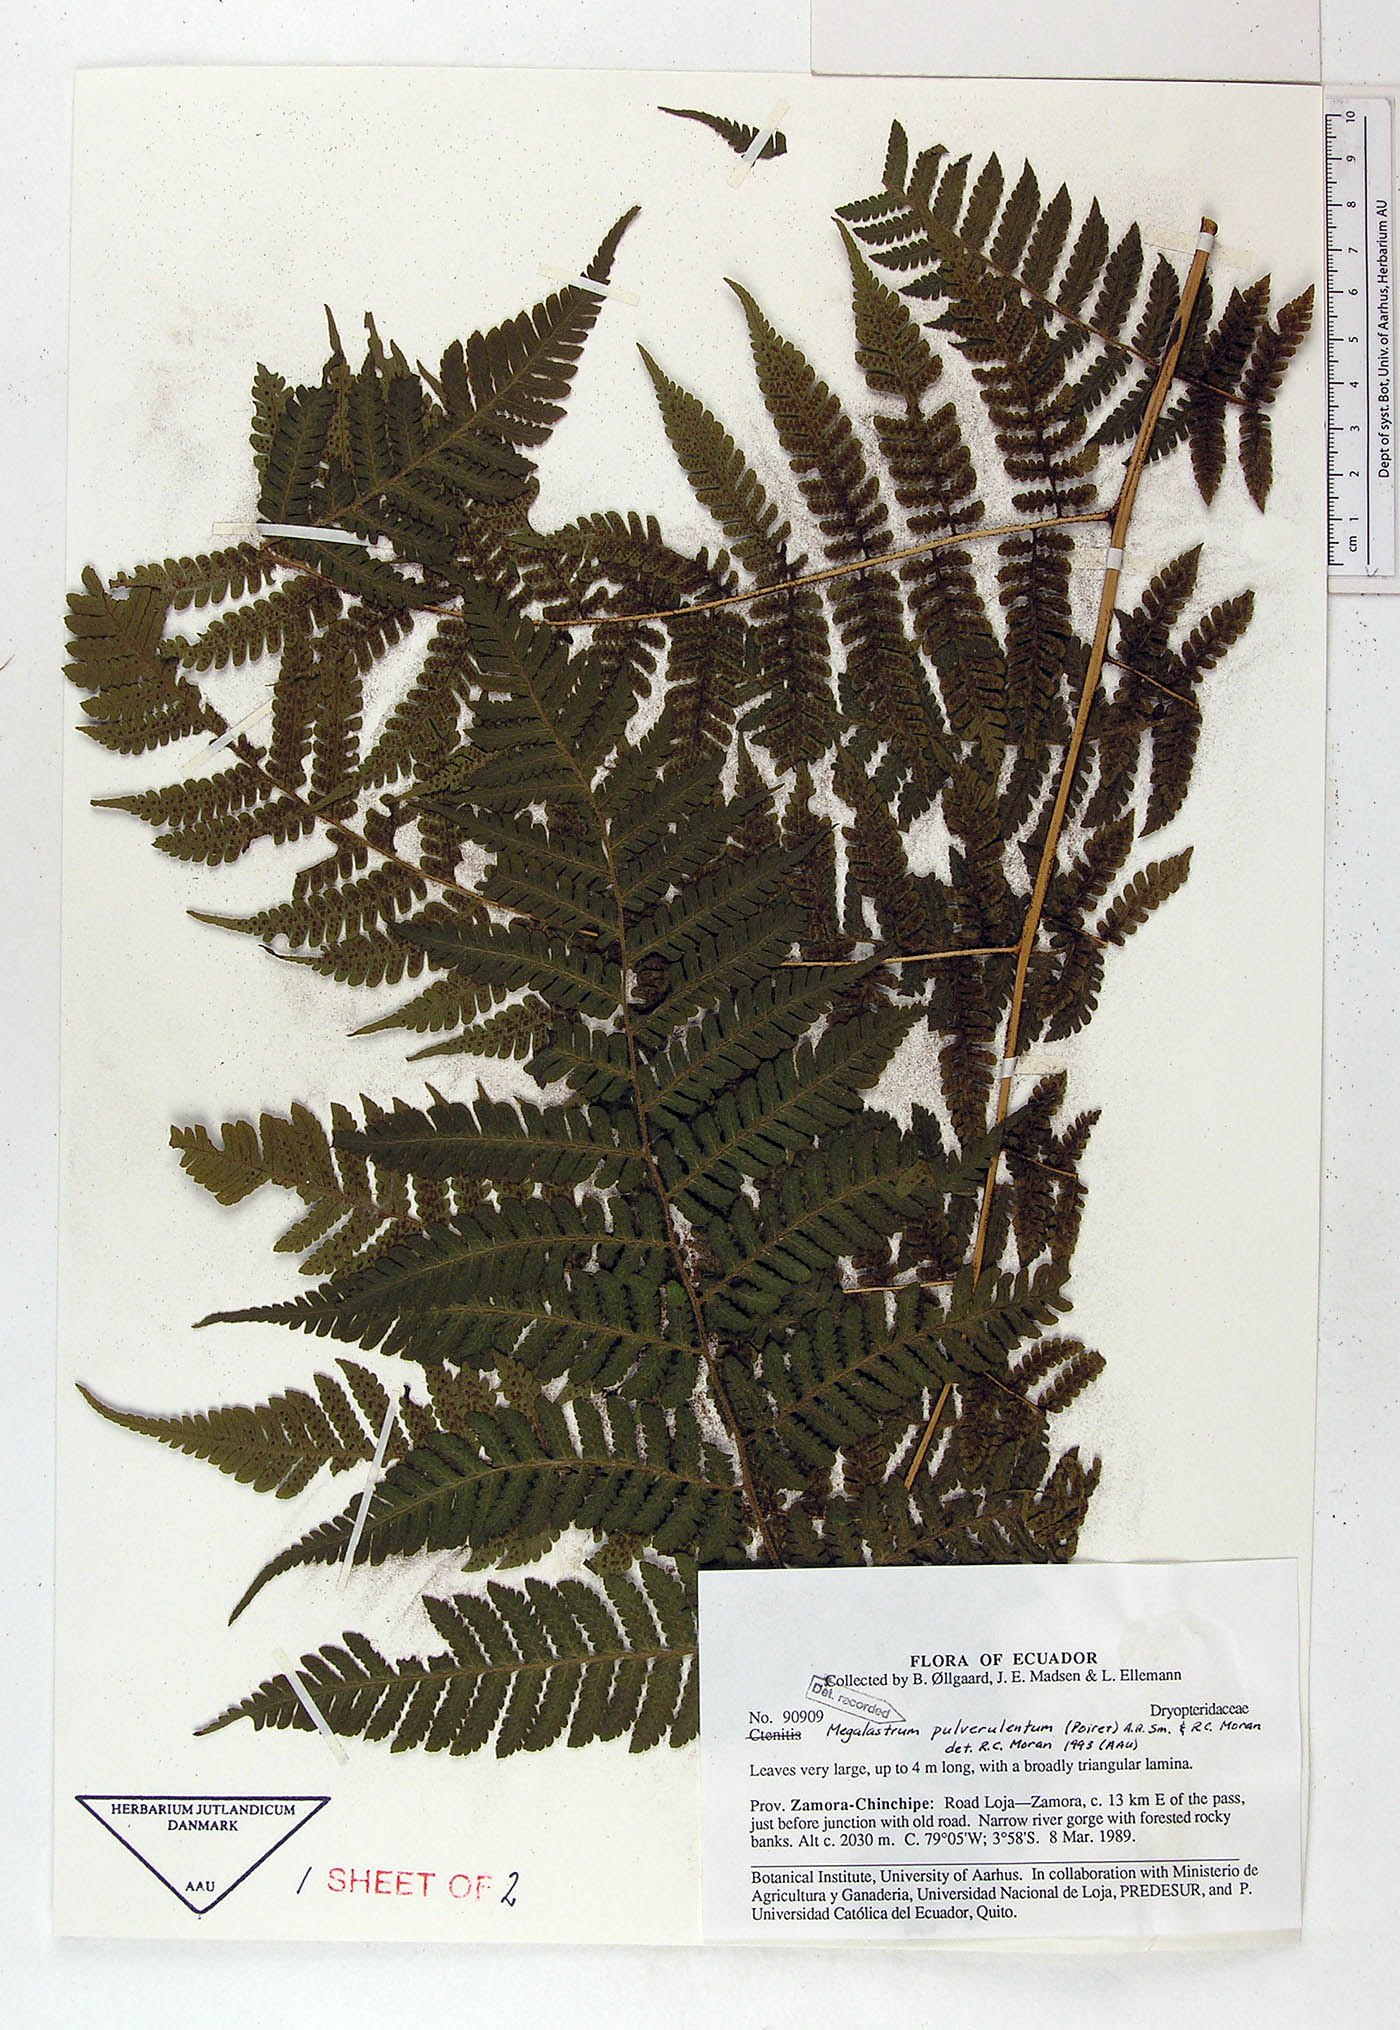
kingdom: Plantae
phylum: Tracheophyta
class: Polypodiopsida
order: Polypodiales
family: Dryopteridaceae
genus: Megalastrum
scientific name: Megalastrum fugaceum
